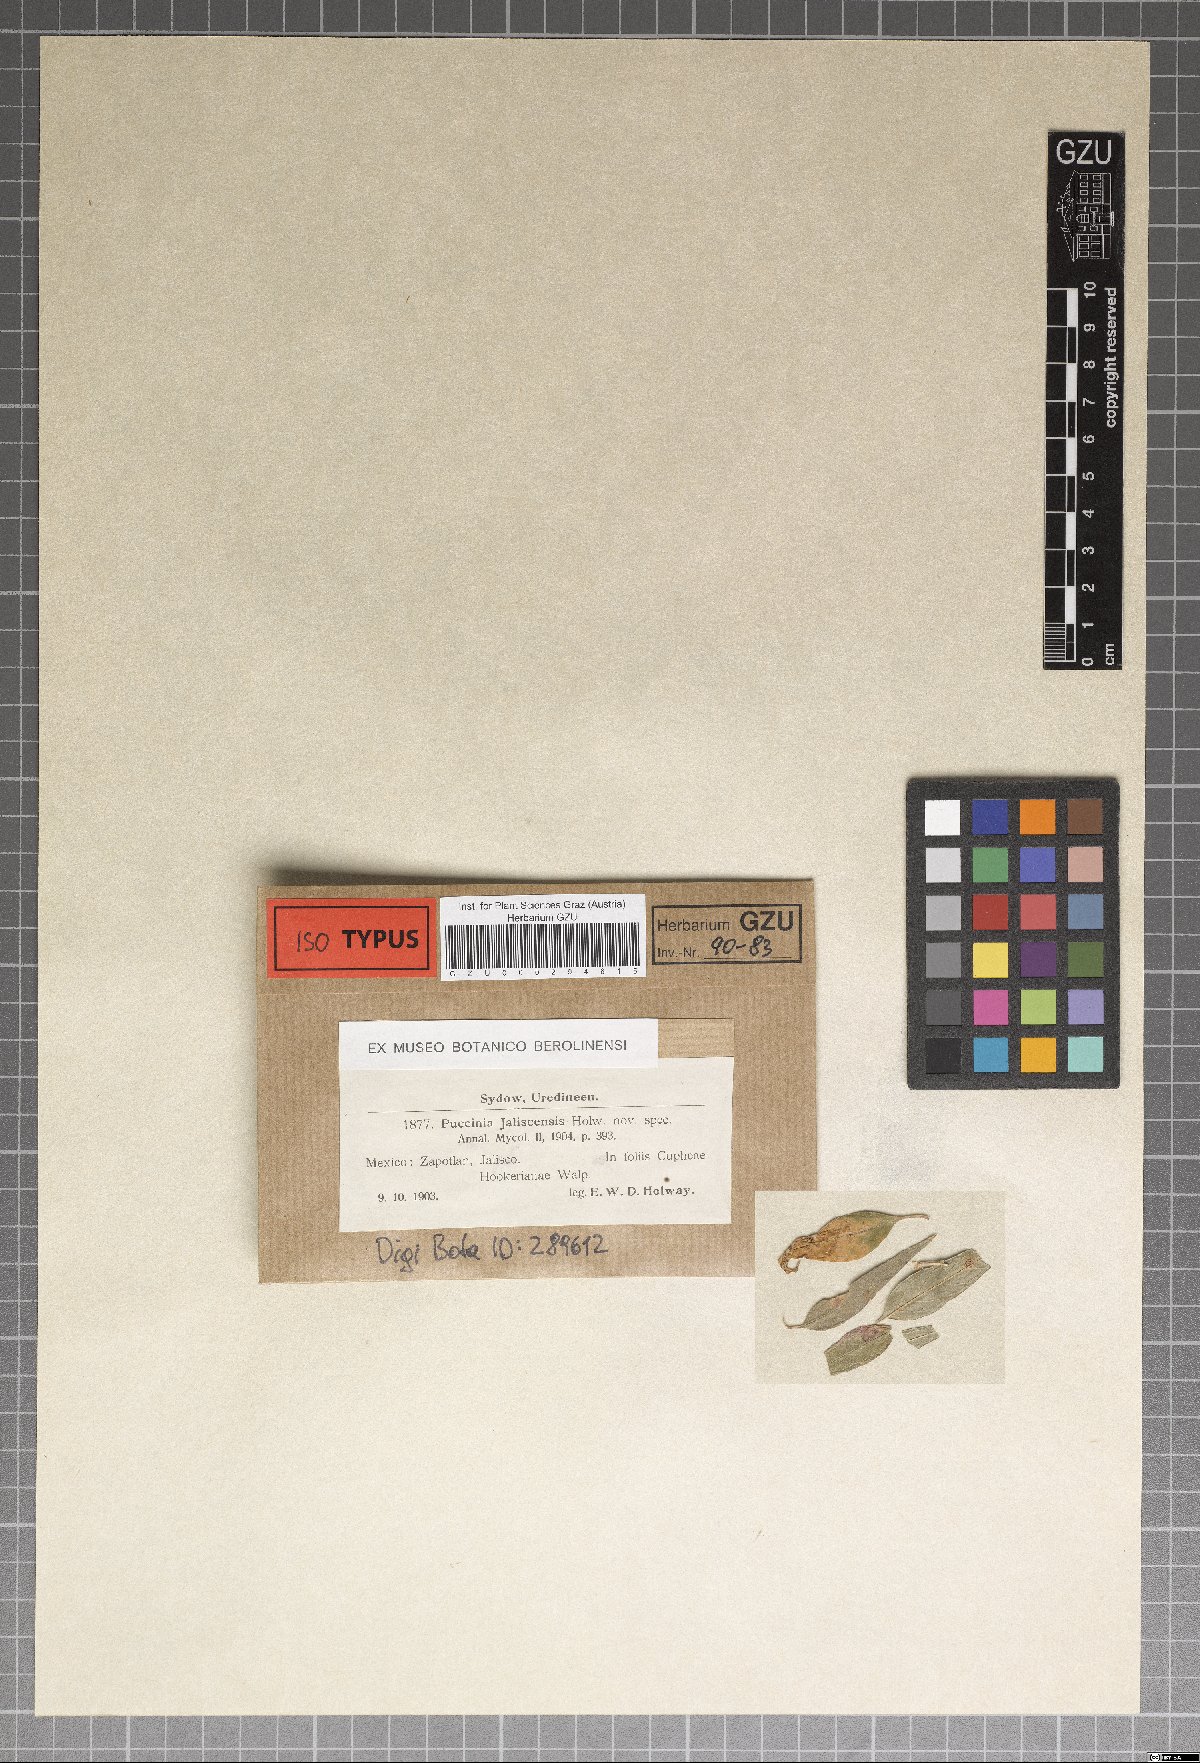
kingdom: Fungi
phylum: Basidiomycota
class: Pucciniomycetes
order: Pucciniales
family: Pucciniaceae
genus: Puccinia
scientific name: Puccinia jaliscensis
